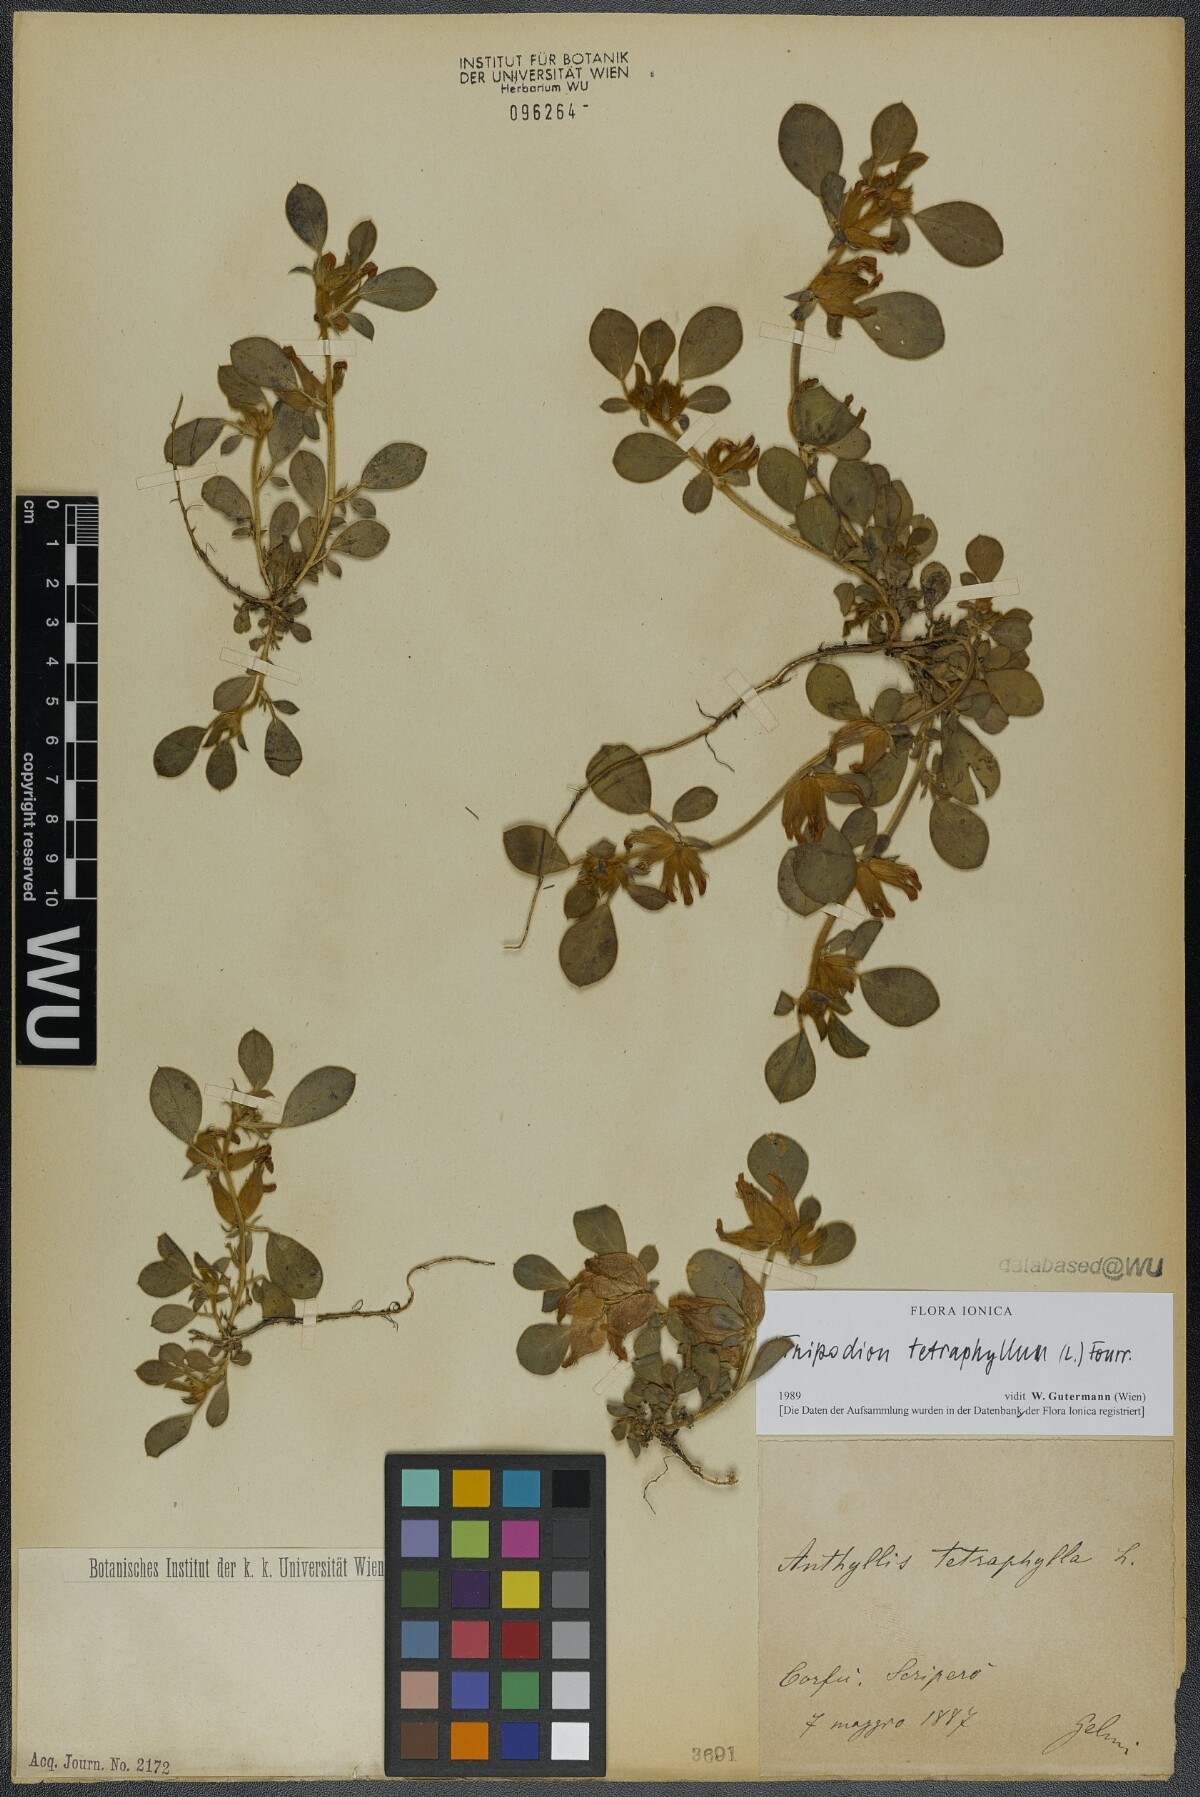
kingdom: Plantae
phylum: Tracheophyta
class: Magnoliopsida
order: Fabales
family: Fabaceae
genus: Tripodion
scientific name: Tripodion tetraphyllum
